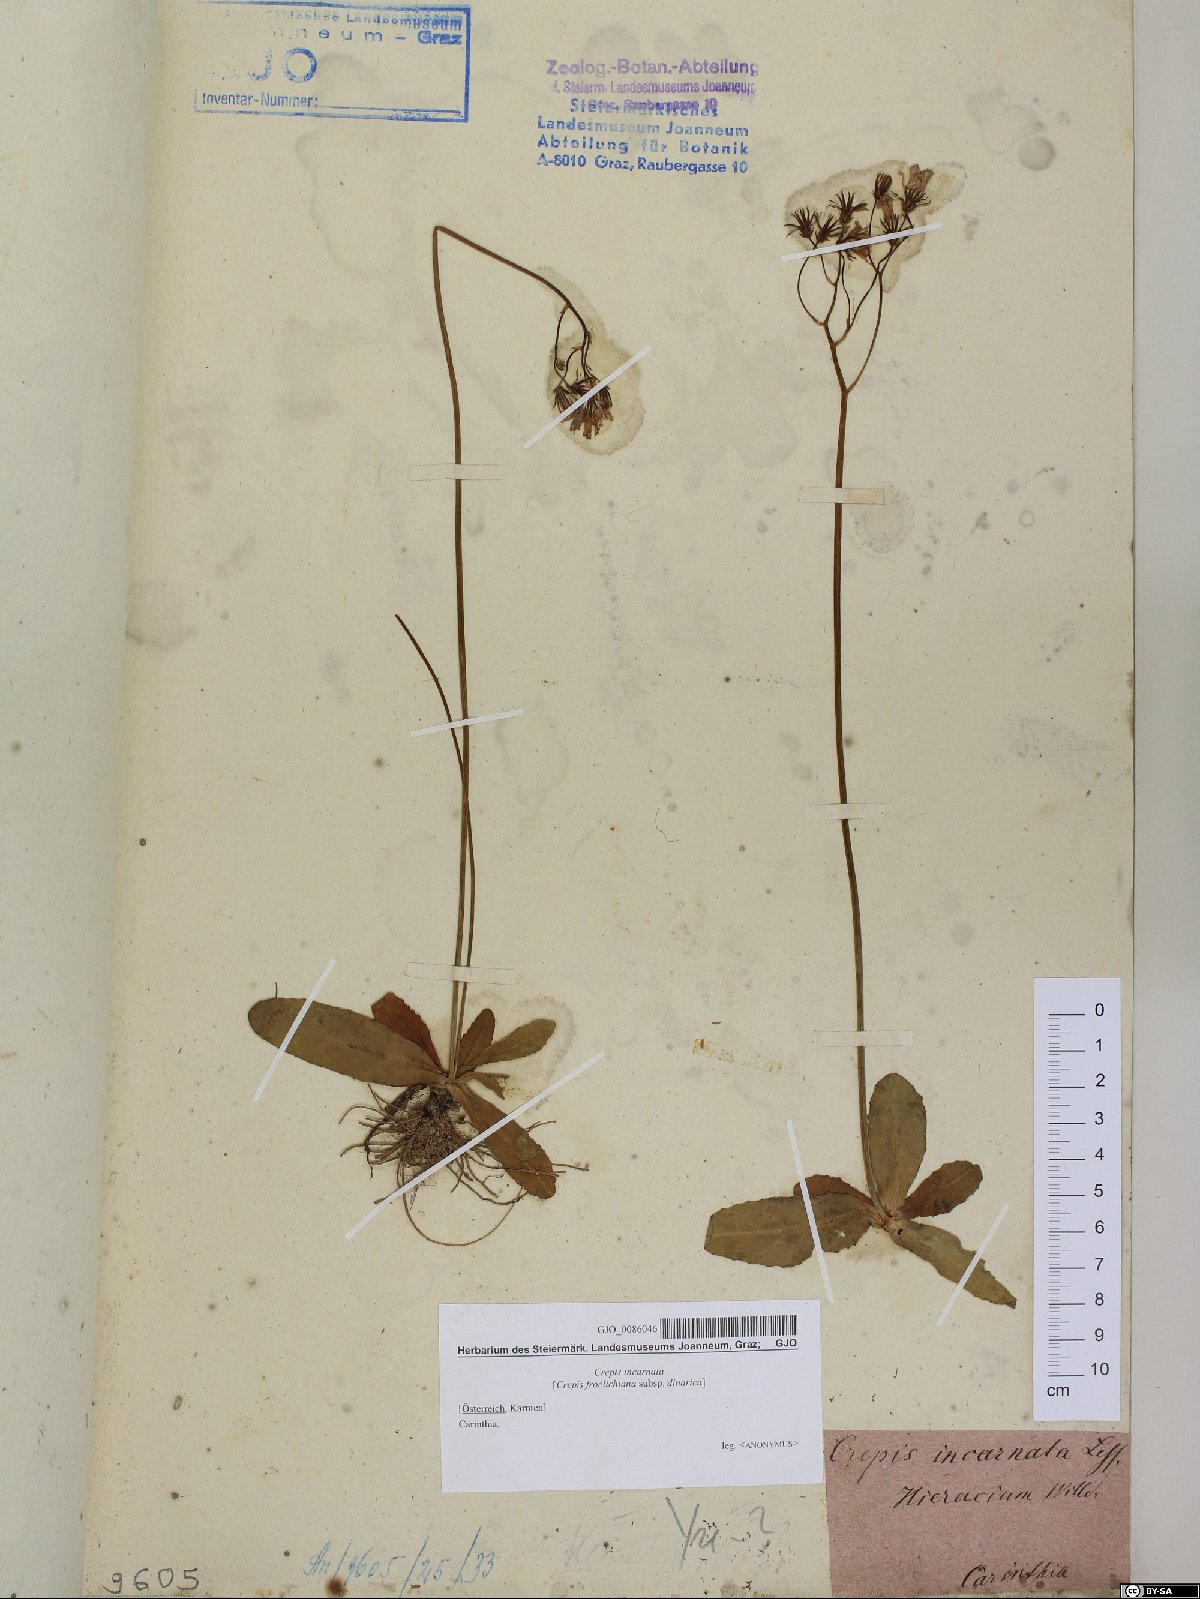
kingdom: Plantae
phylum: Tracheophyta
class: Magnoliopsida
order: Asterales
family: Asteraceae
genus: Crepis
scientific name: Crepis froelichiana
